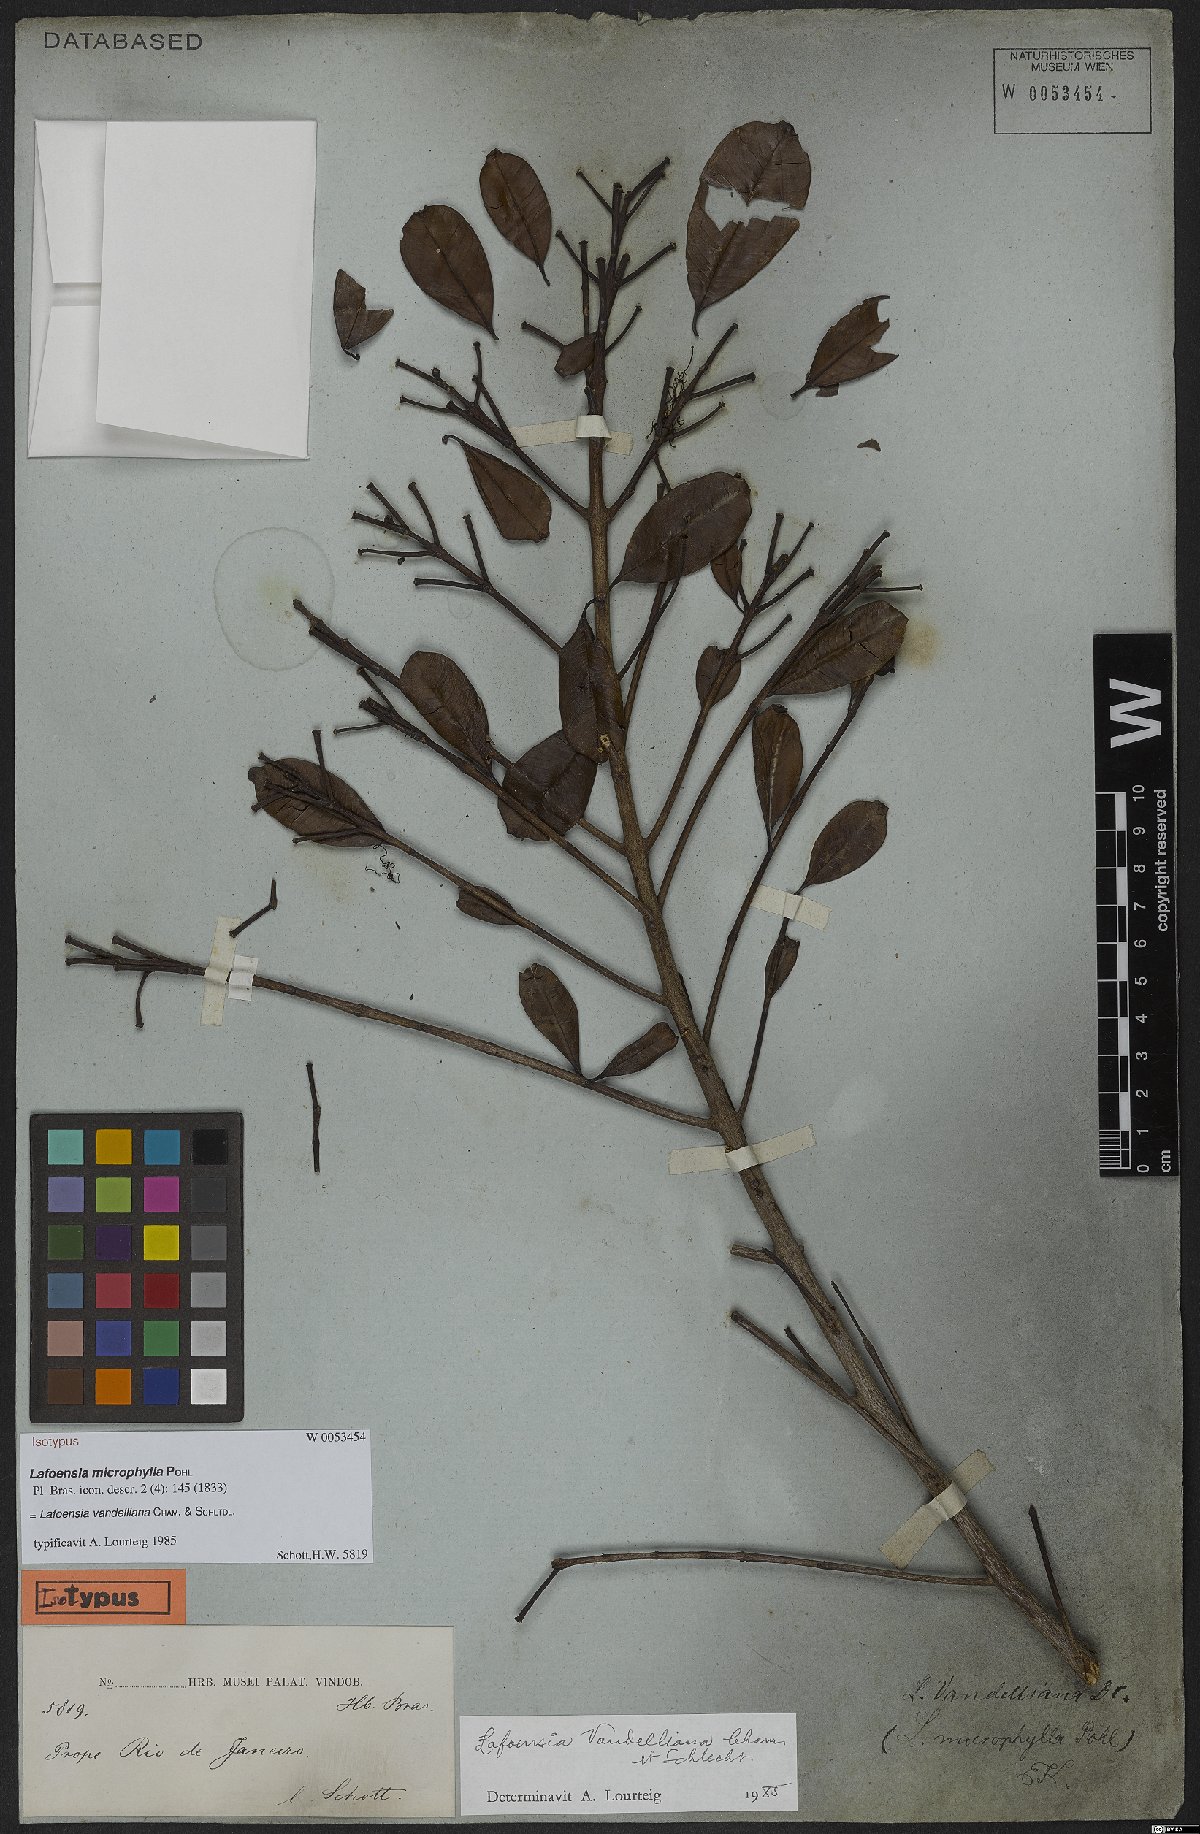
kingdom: Plantae
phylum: Tracheophyta
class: Magnoliopsida
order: Myrtales
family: Lythraceae
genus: Lafoensia
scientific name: Lafoensia vandelliana
